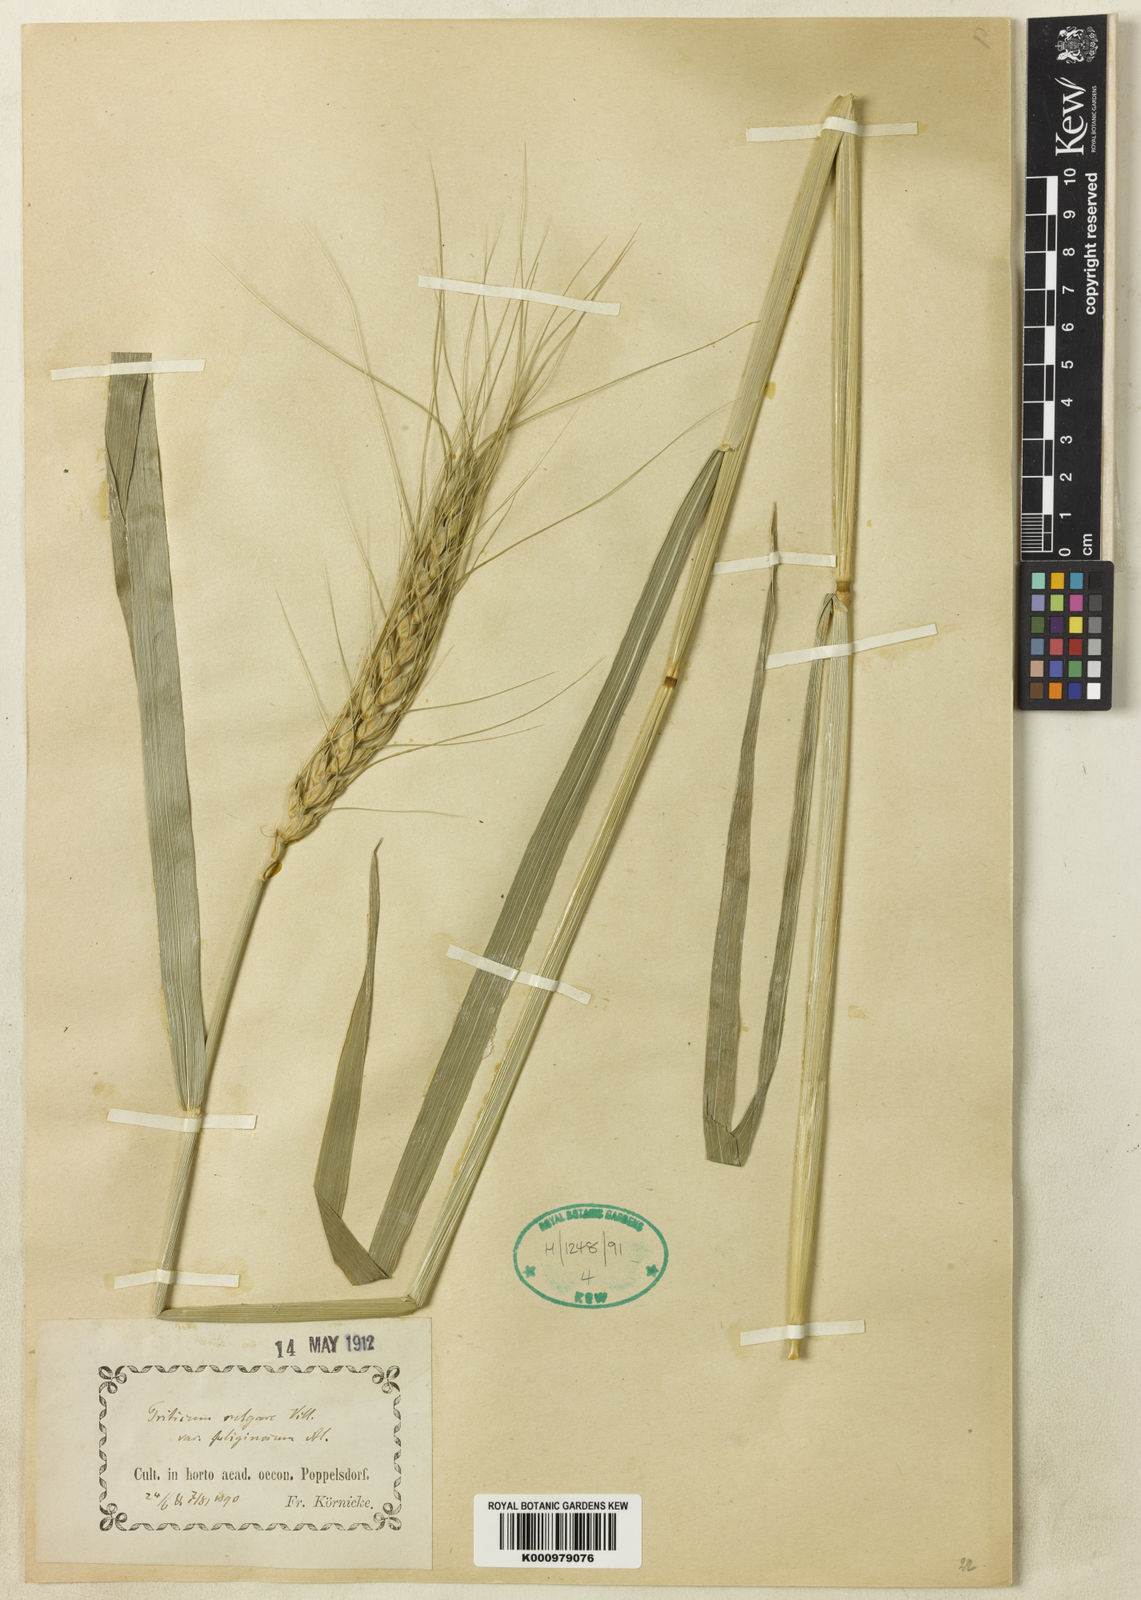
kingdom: Plantae
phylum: Tracheophyta
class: Liliopsida
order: Poales
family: Poaceae
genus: Triticum
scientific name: Triticum aestivum
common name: Common wheat
